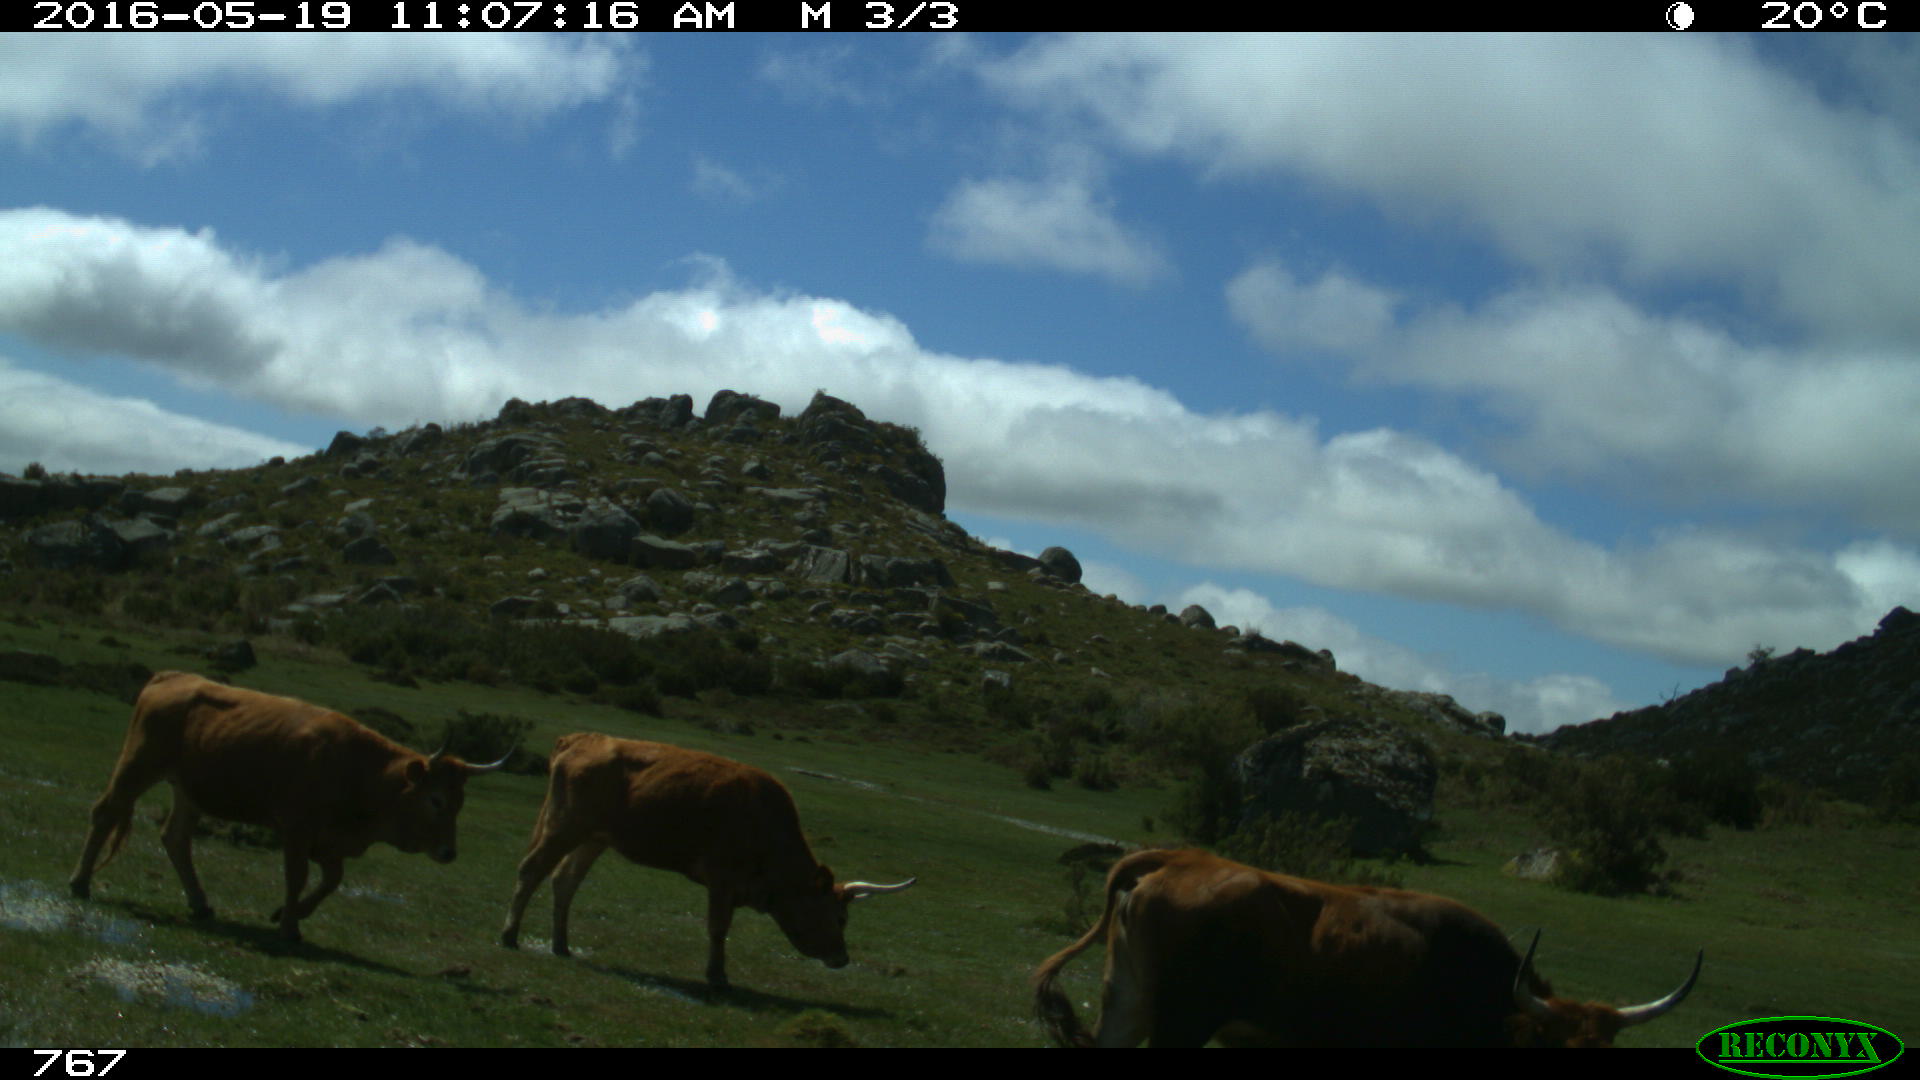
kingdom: Animalia
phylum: Chordata
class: Mammalia
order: Artiodactyla
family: Bovidae
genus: Bos
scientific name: Bos taurus
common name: Domesticated cattle
